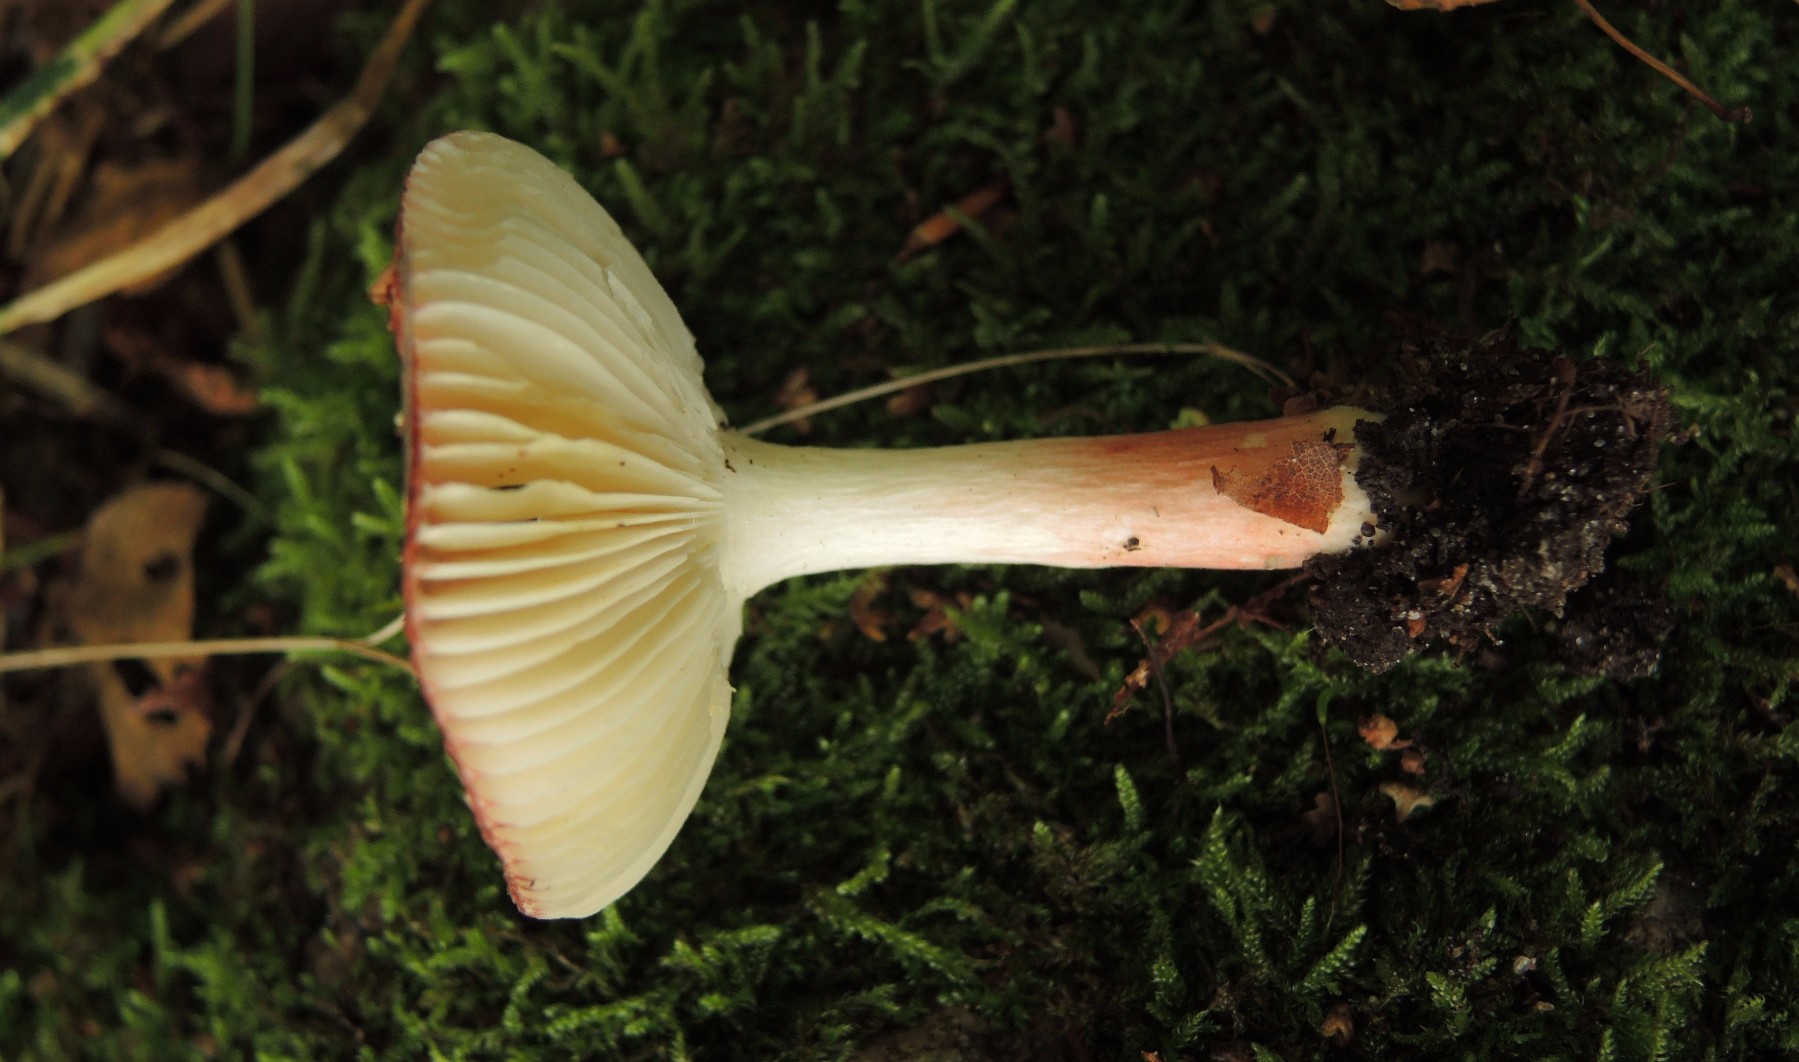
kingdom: Fungi
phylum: Basidiomycota
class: Agaricomycetes
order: Russulales
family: Russulaceae
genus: Russula
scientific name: Russula nitida
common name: året skørhat
